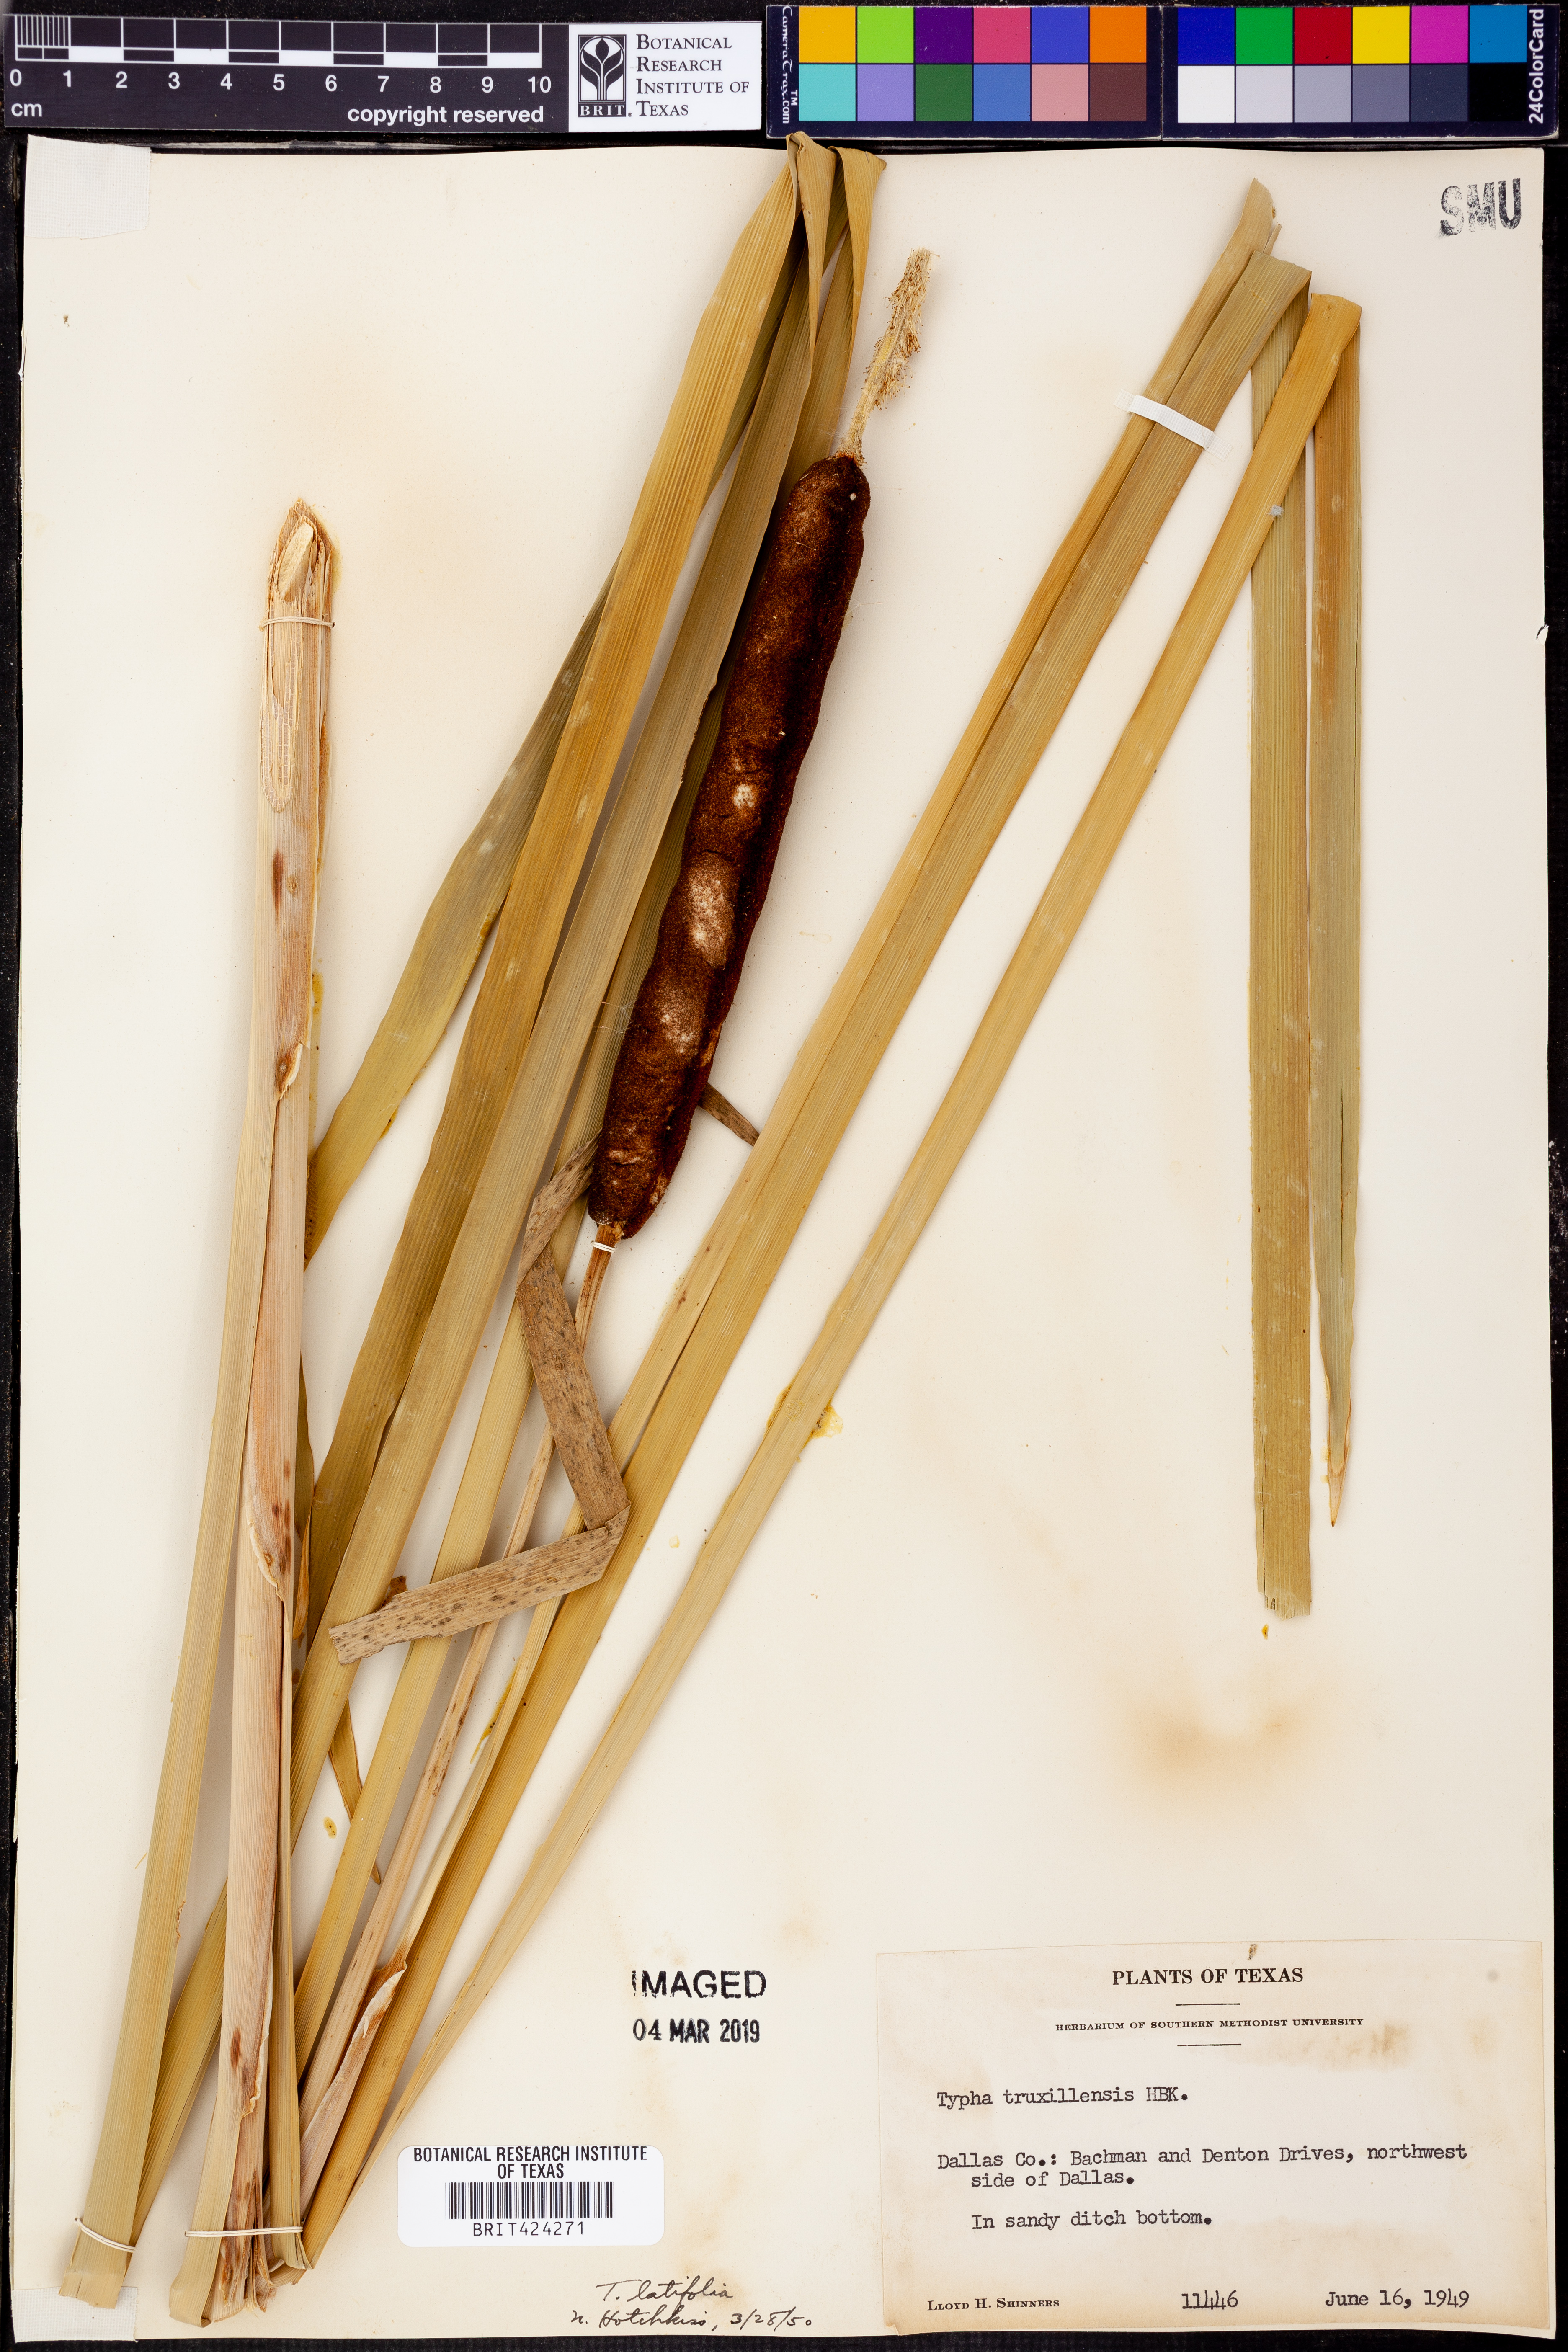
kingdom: Plantae
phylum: Tracheophyta
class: Liliopsida
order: Poales
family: Typhaceae
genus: Typha
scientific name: Typha latifolia
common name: Broadleaf cattail
